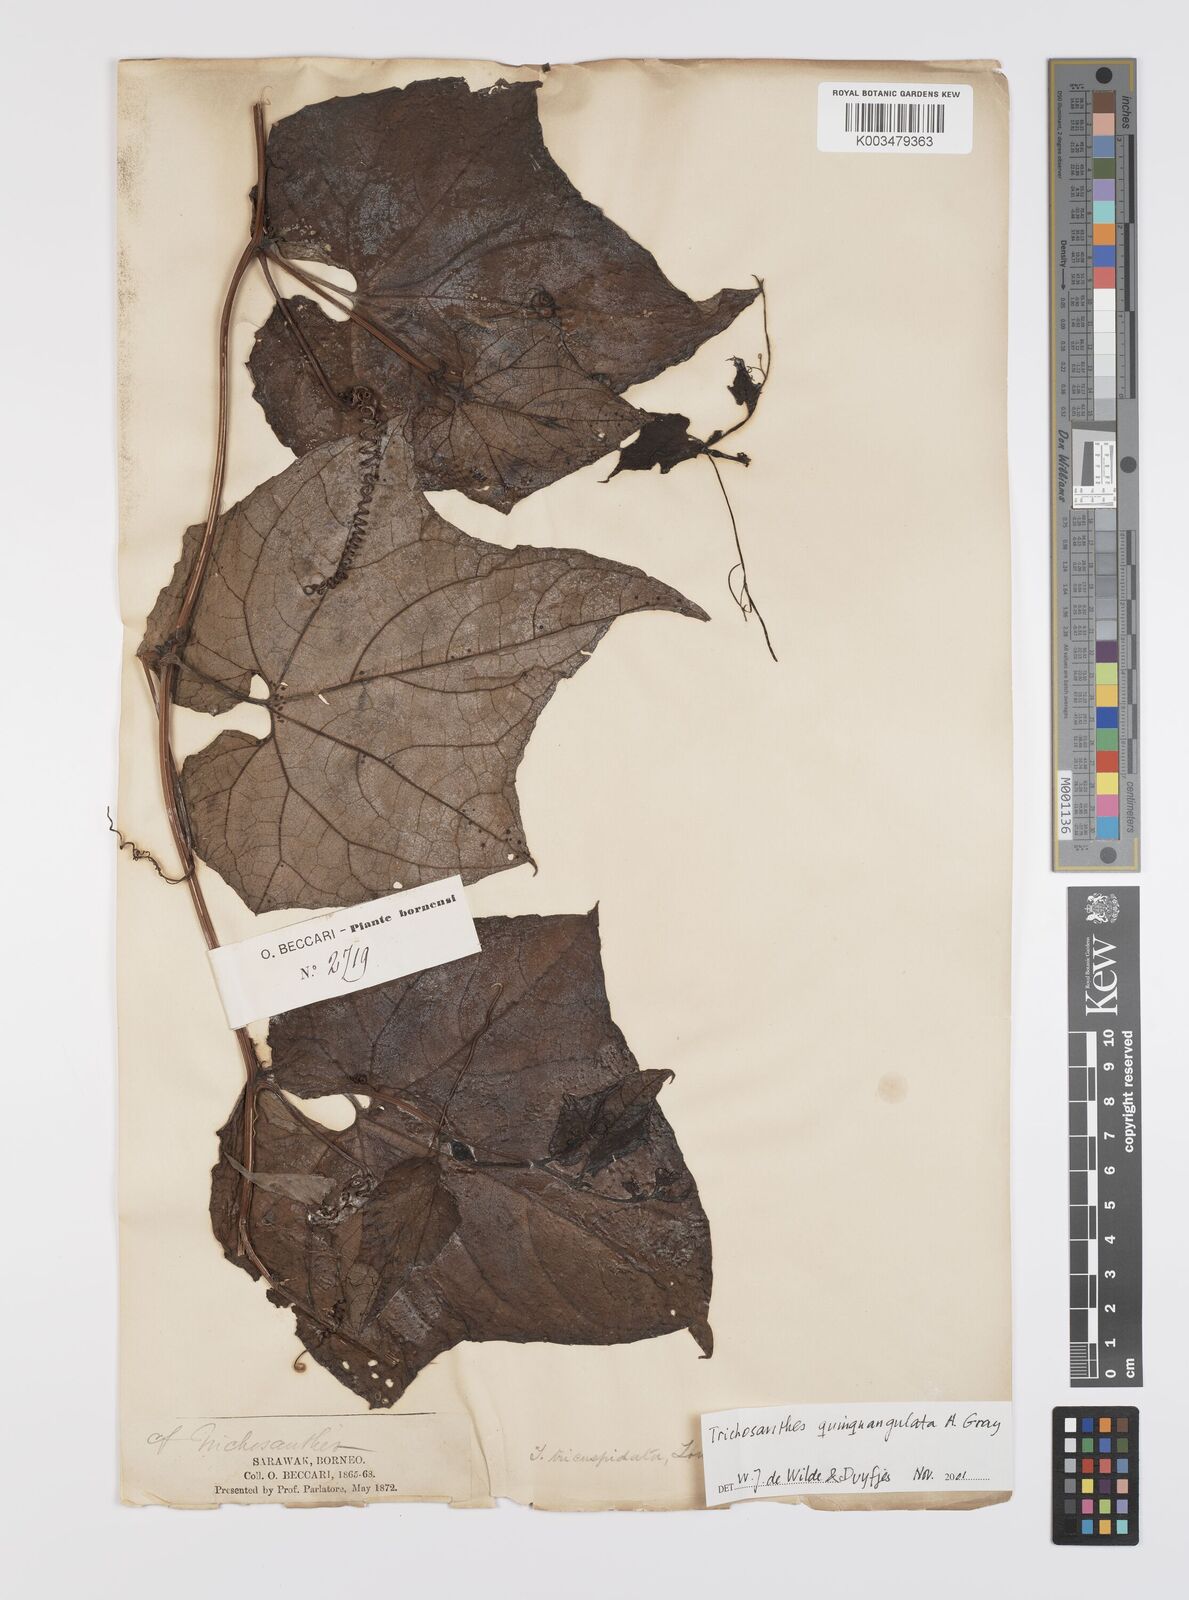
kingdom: Plantae
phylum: Tracheophyta
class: Magnoliopsida
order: Cucurbitales
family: Cucurbitaceae
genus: Trichosanthes
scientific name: Trichosanthes tricuspidata
